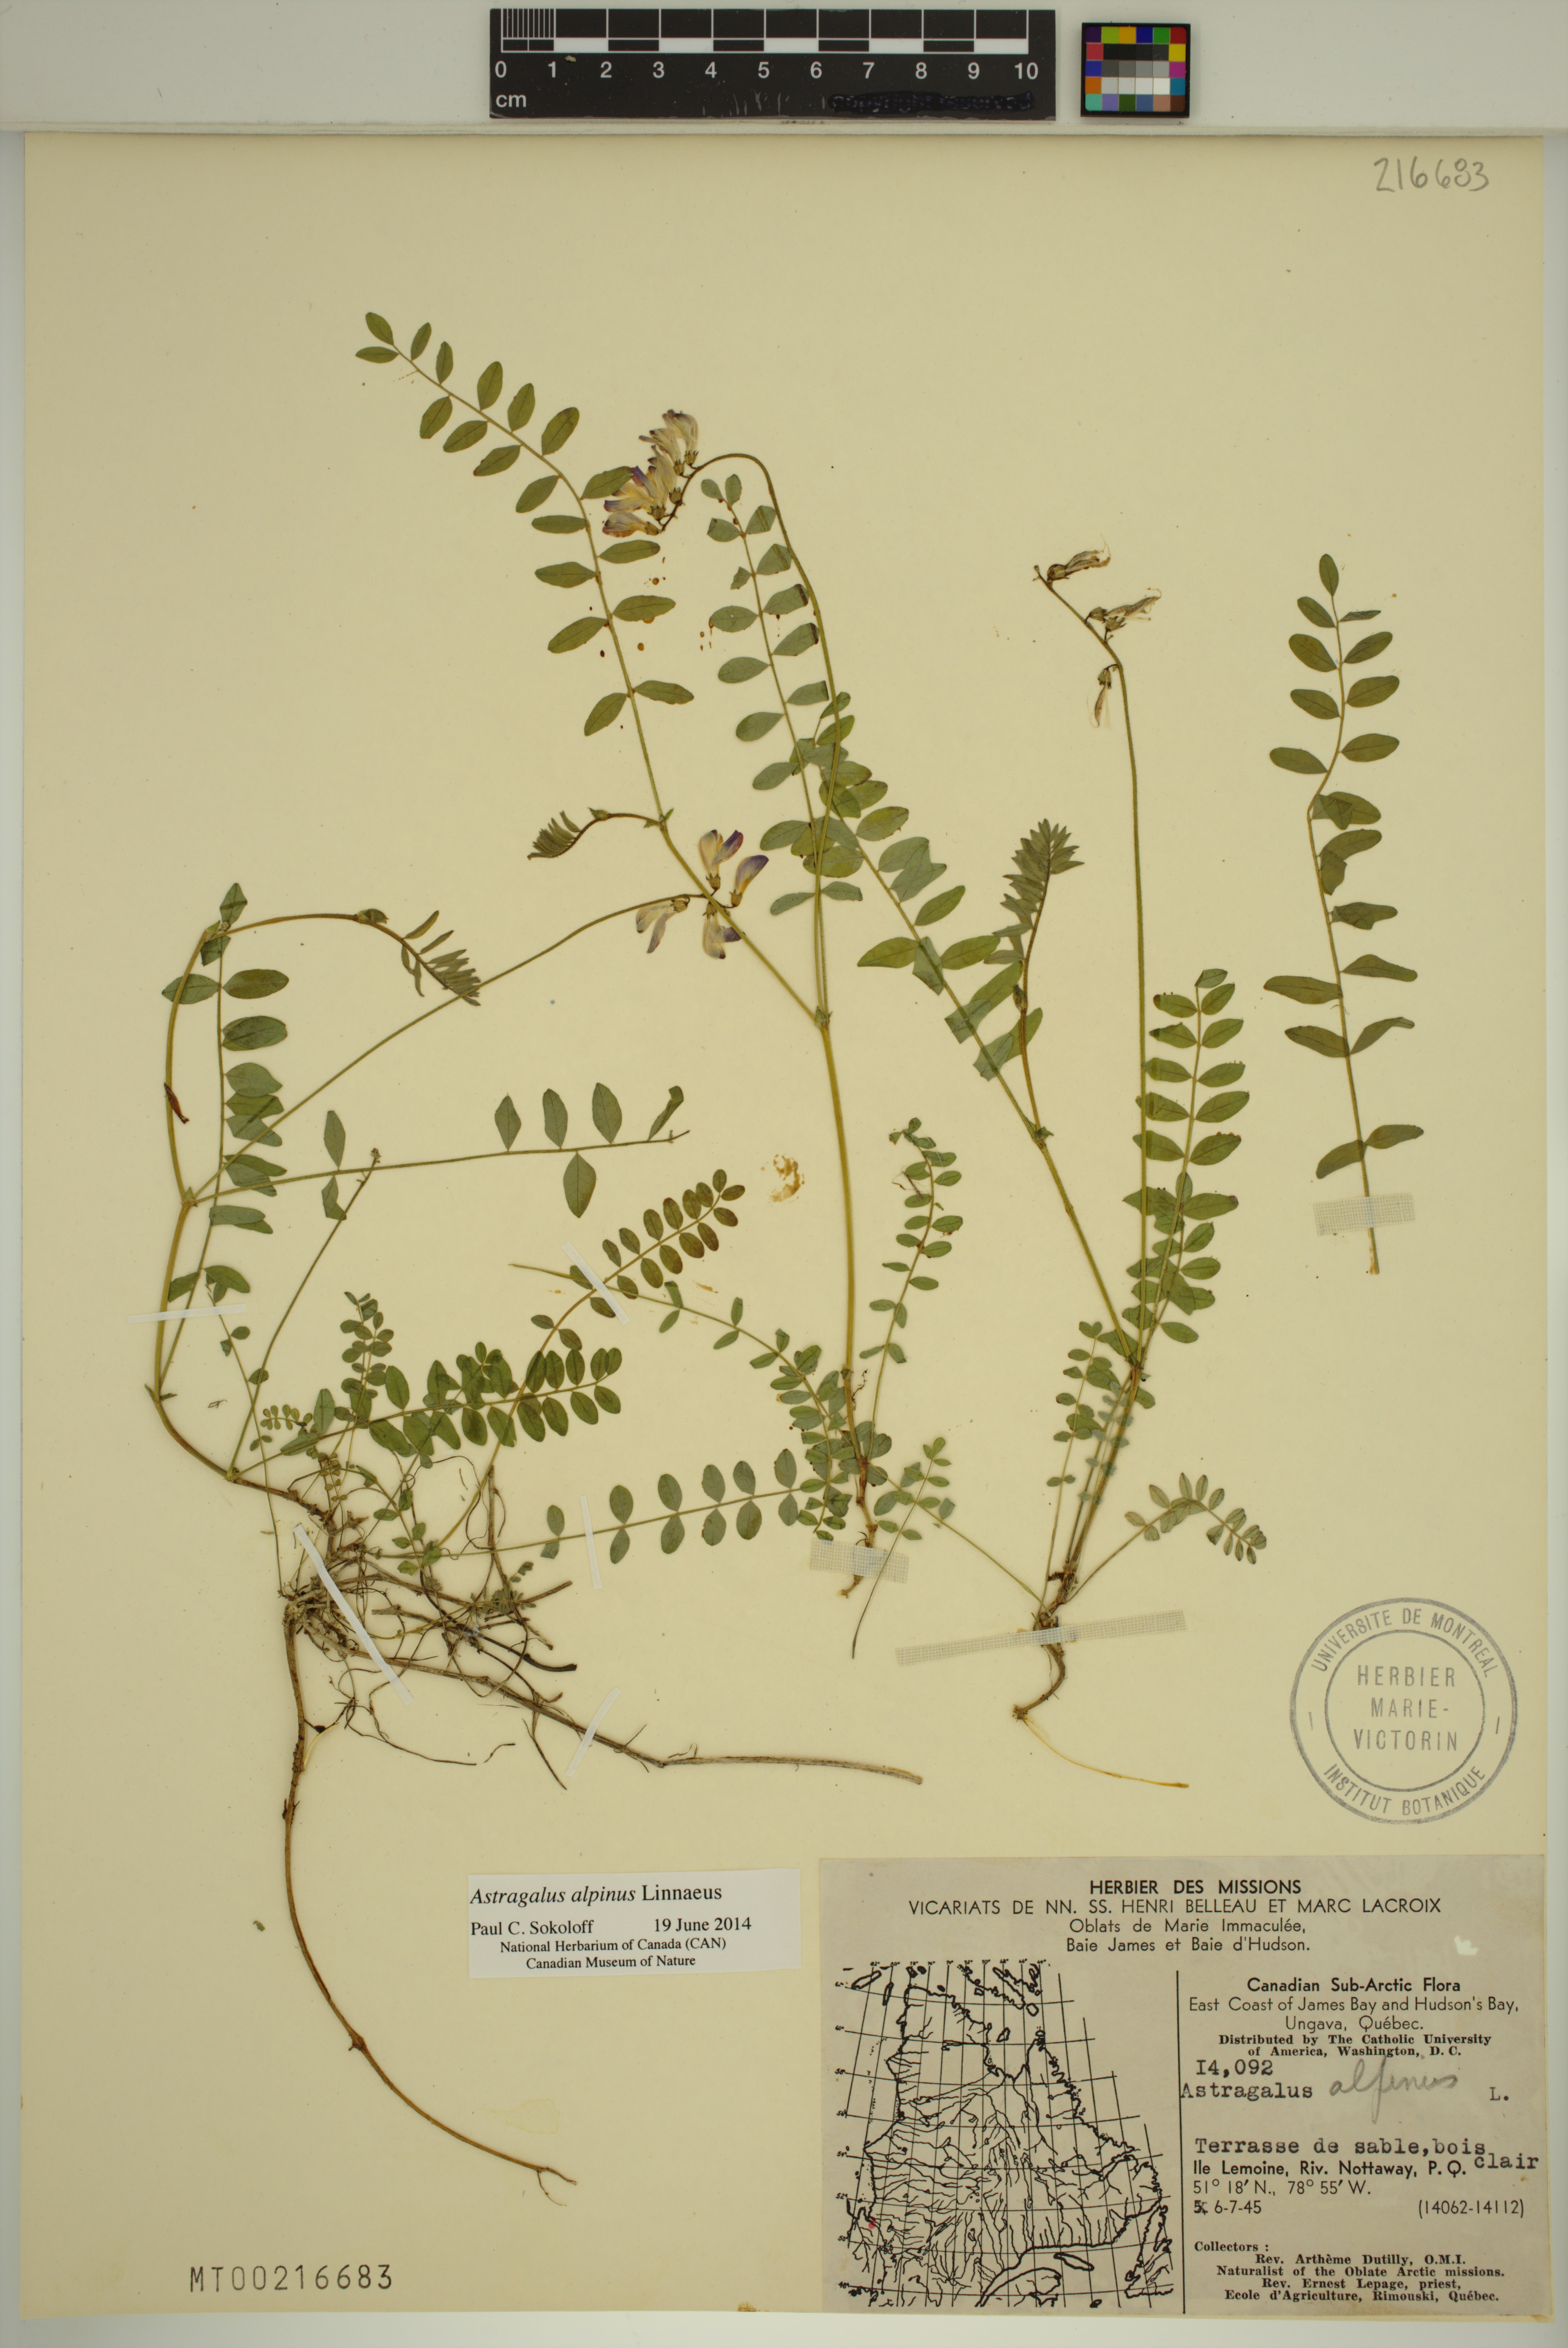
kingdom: Plantae
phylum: Tracheophyta
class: Magnoliopsida
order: Fabales
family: Fabaceae
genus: Astragalus
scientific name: Astragalus alpinus
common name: Alpine milk-vetch
